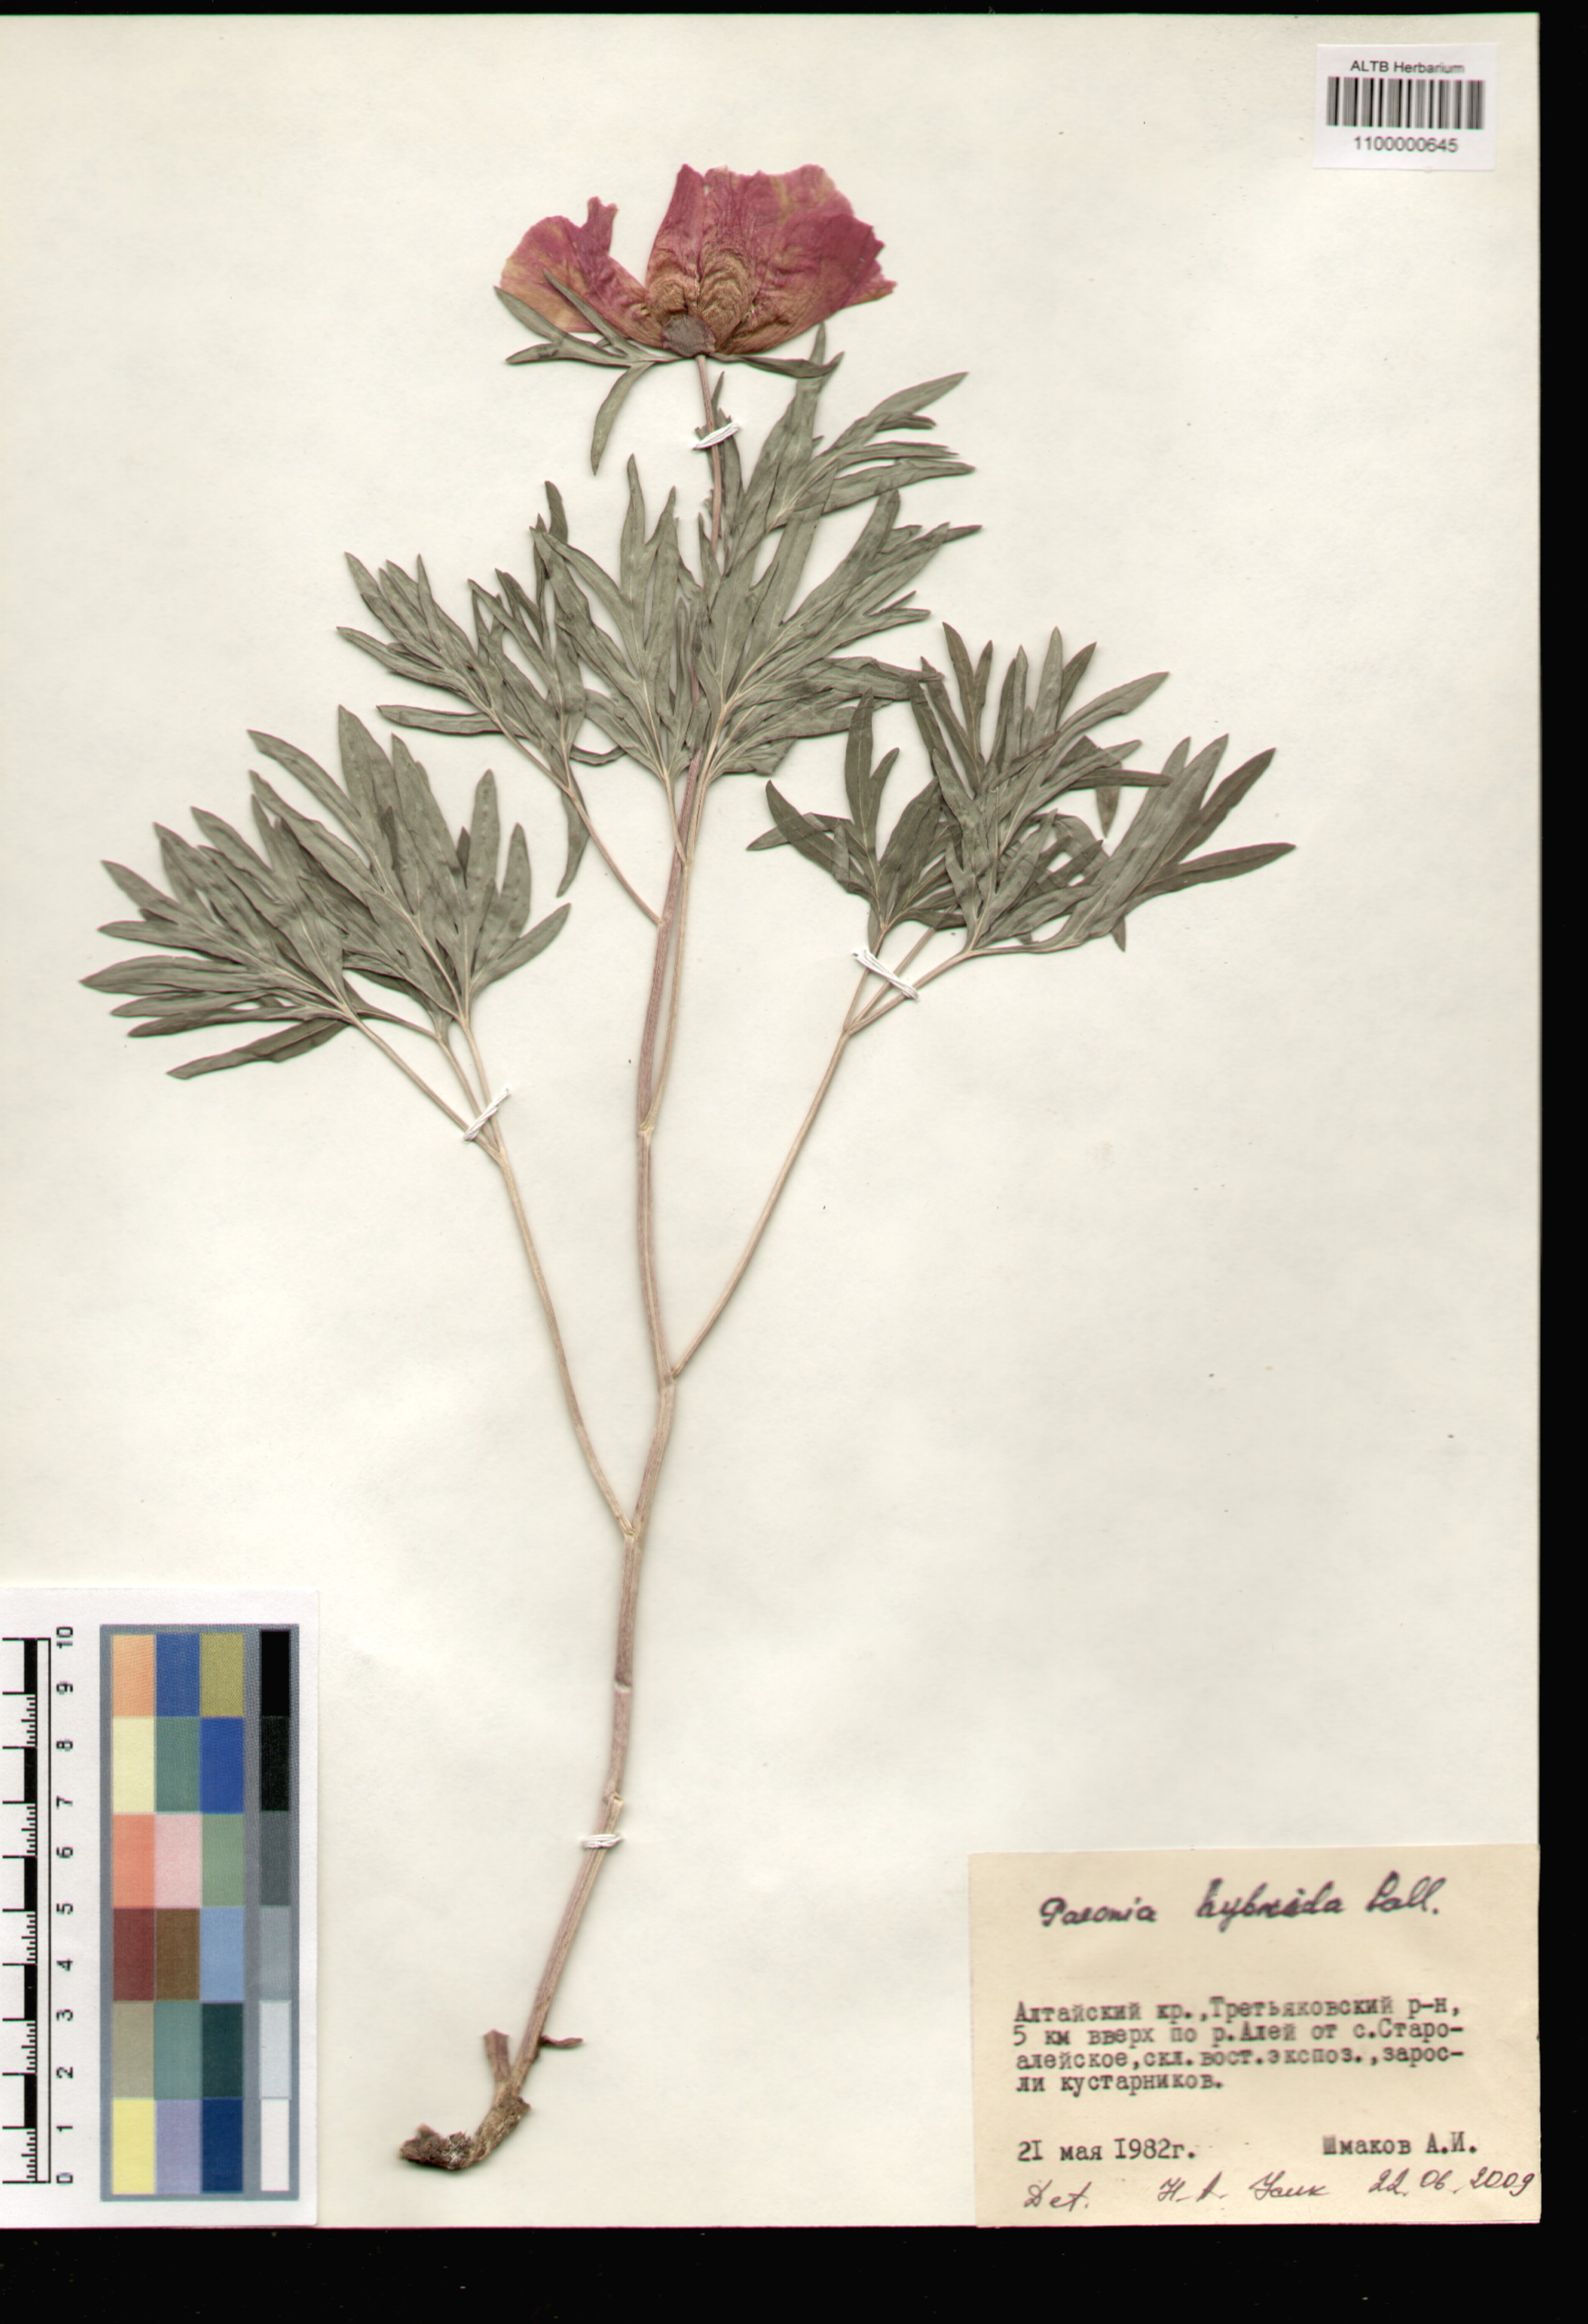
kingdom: Plantae
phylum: Tracheophyta
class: Magnoliopsida
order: Saxifragales
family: Paeoniaceae
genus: Paeonia
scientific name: Paeonia anomala
